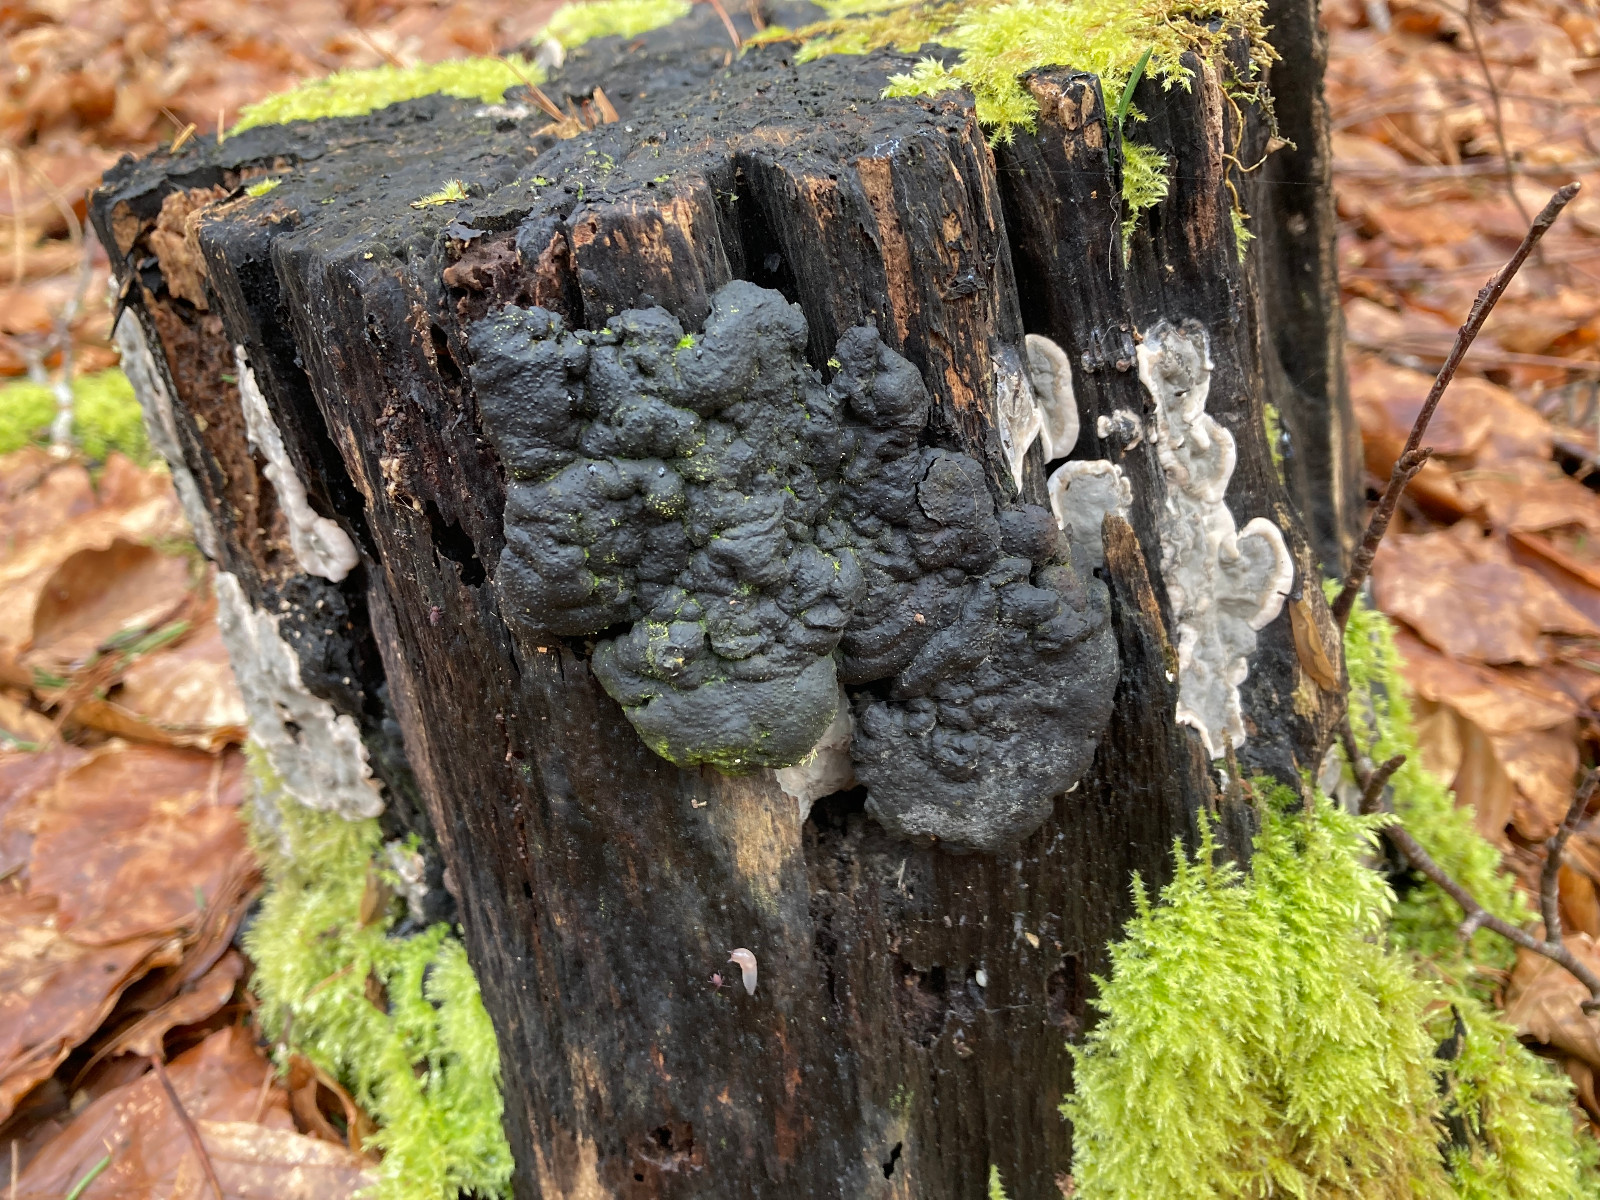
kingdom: Fungi
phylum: Ascomycota
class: Sordariomycetes
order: Xylariales
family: Xylariaceae
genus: Kretzschmaria
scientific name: Kretzschmaria deusta
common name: stor kulsvamp
